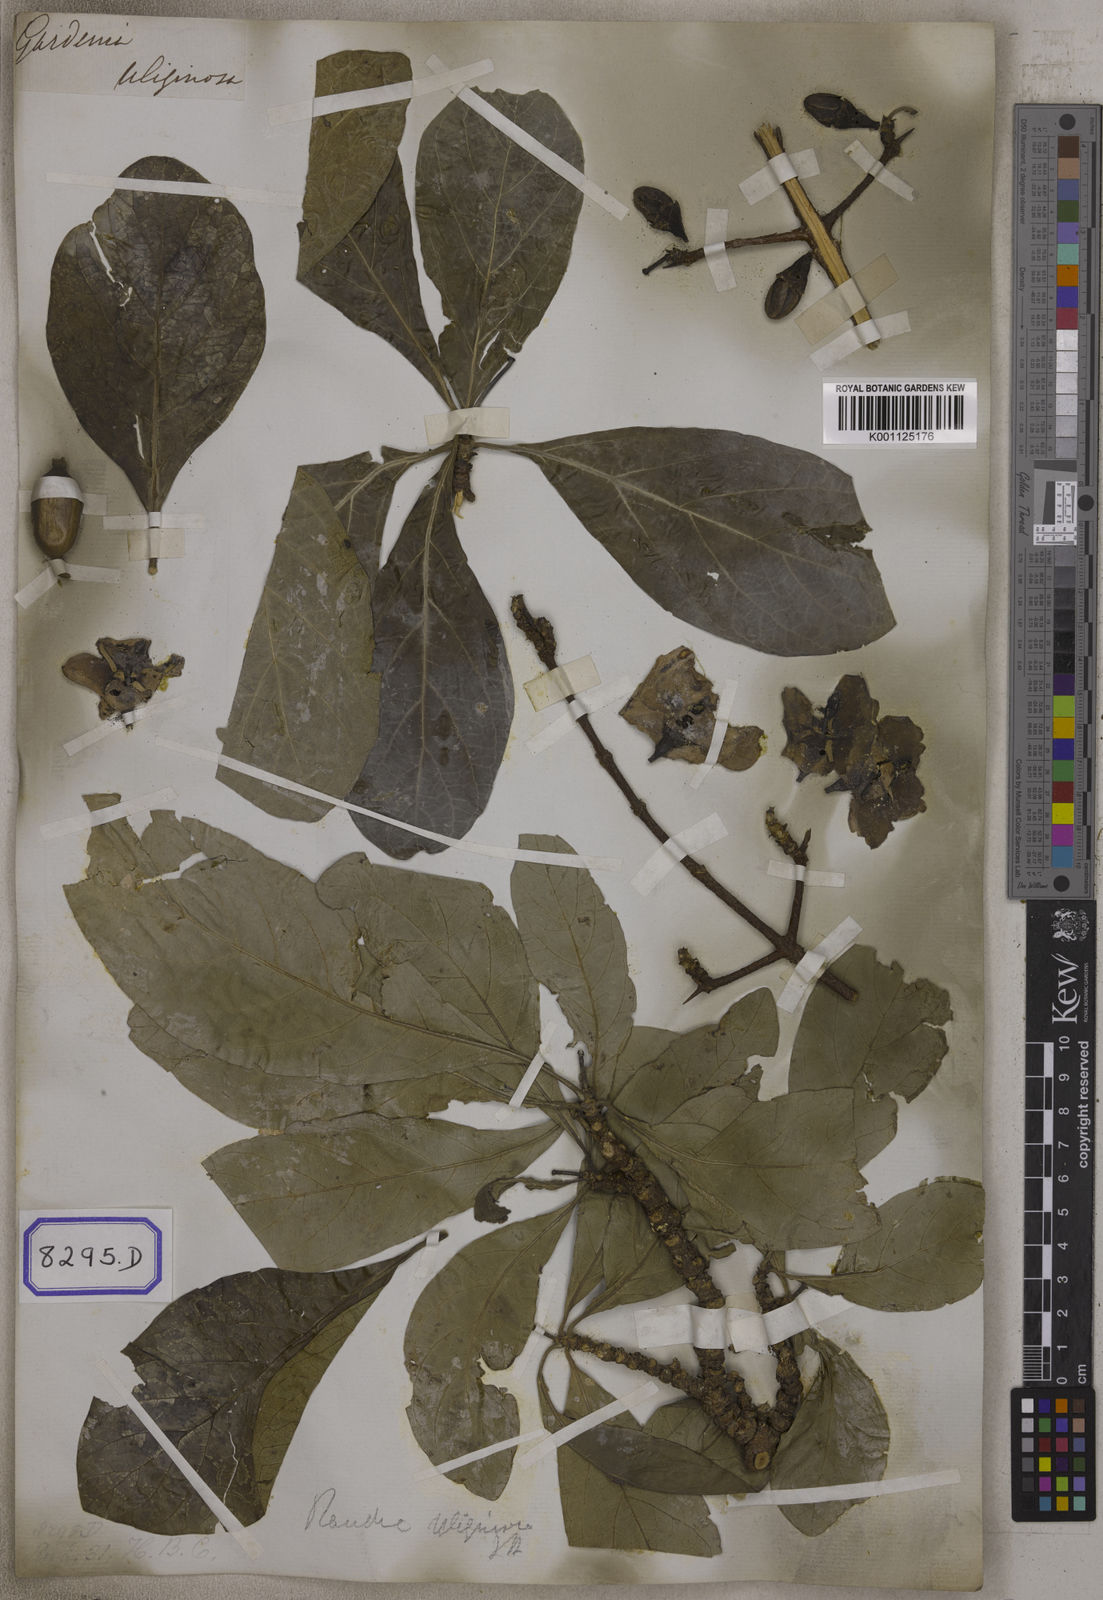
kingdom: Plantae
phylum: Tracheophyta
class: Magnoliopsida
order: Gentianales
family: Rubiaceae
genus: Gardenia
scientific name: Gardenia
